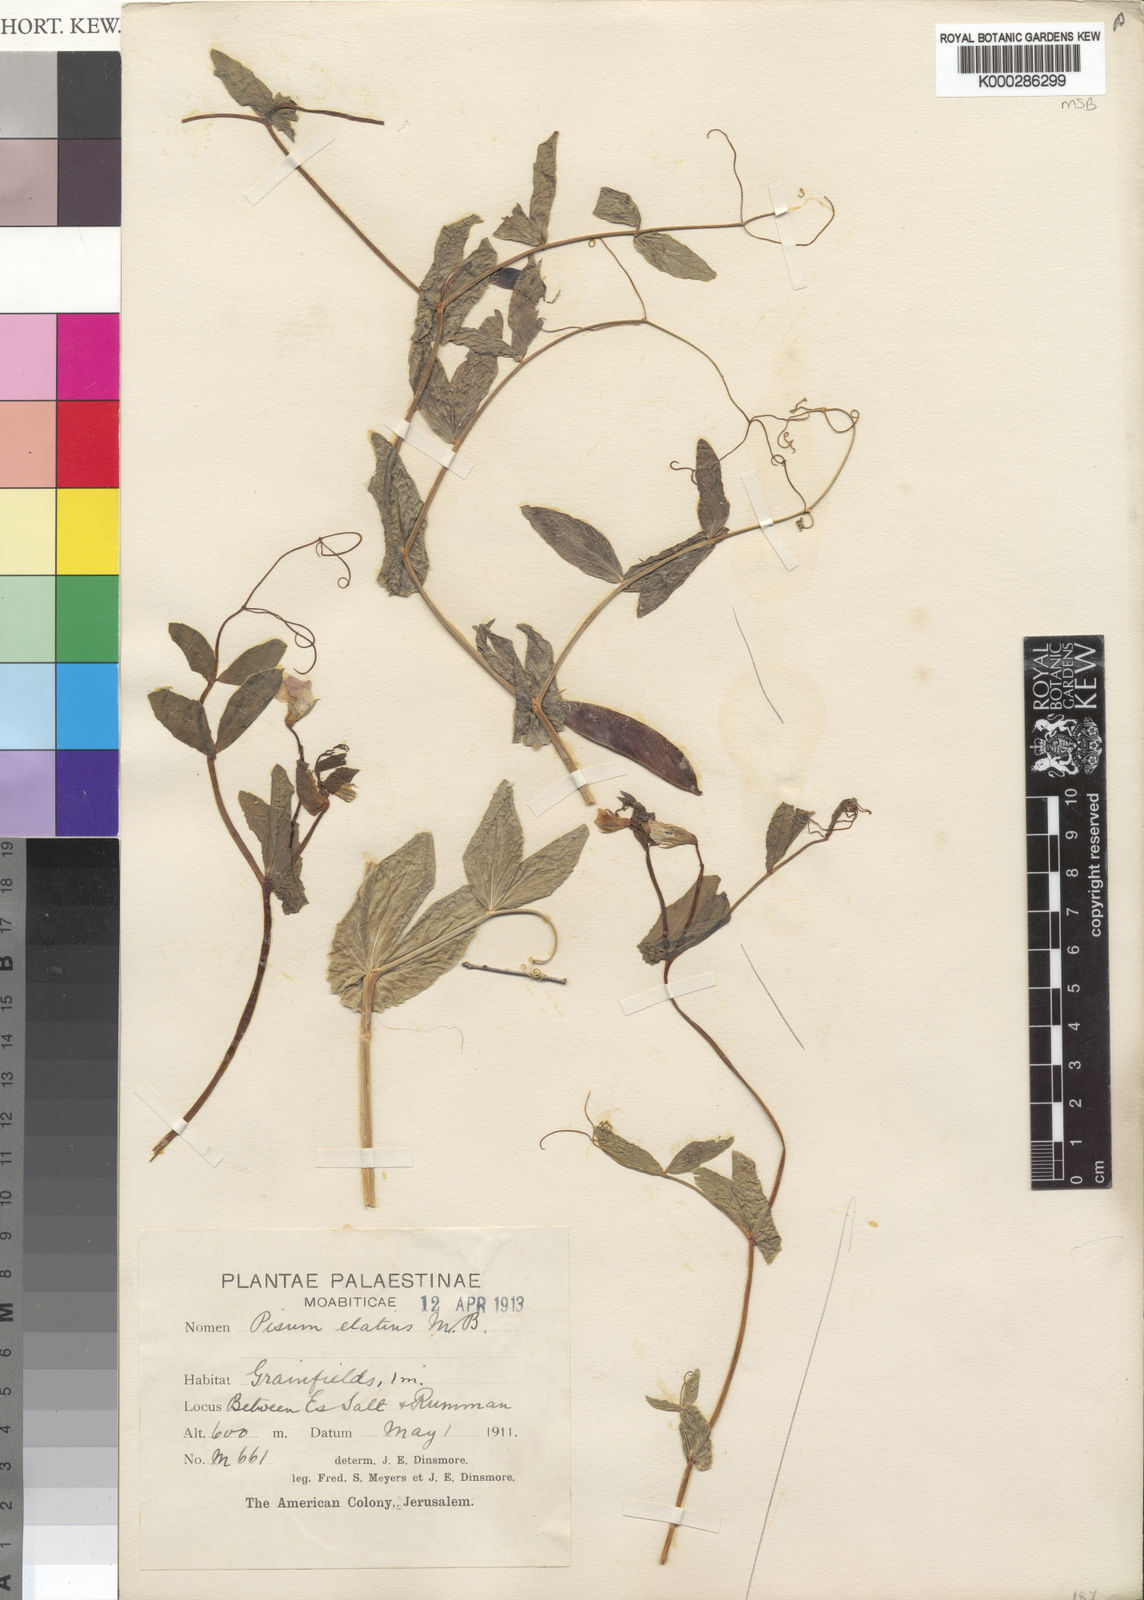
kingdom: Plantae
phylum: Tracheophyta
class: Magnoliopsida
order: Fabales
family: Fabaceae
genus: Lathyrus
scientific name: Lathyrus oleraceus
